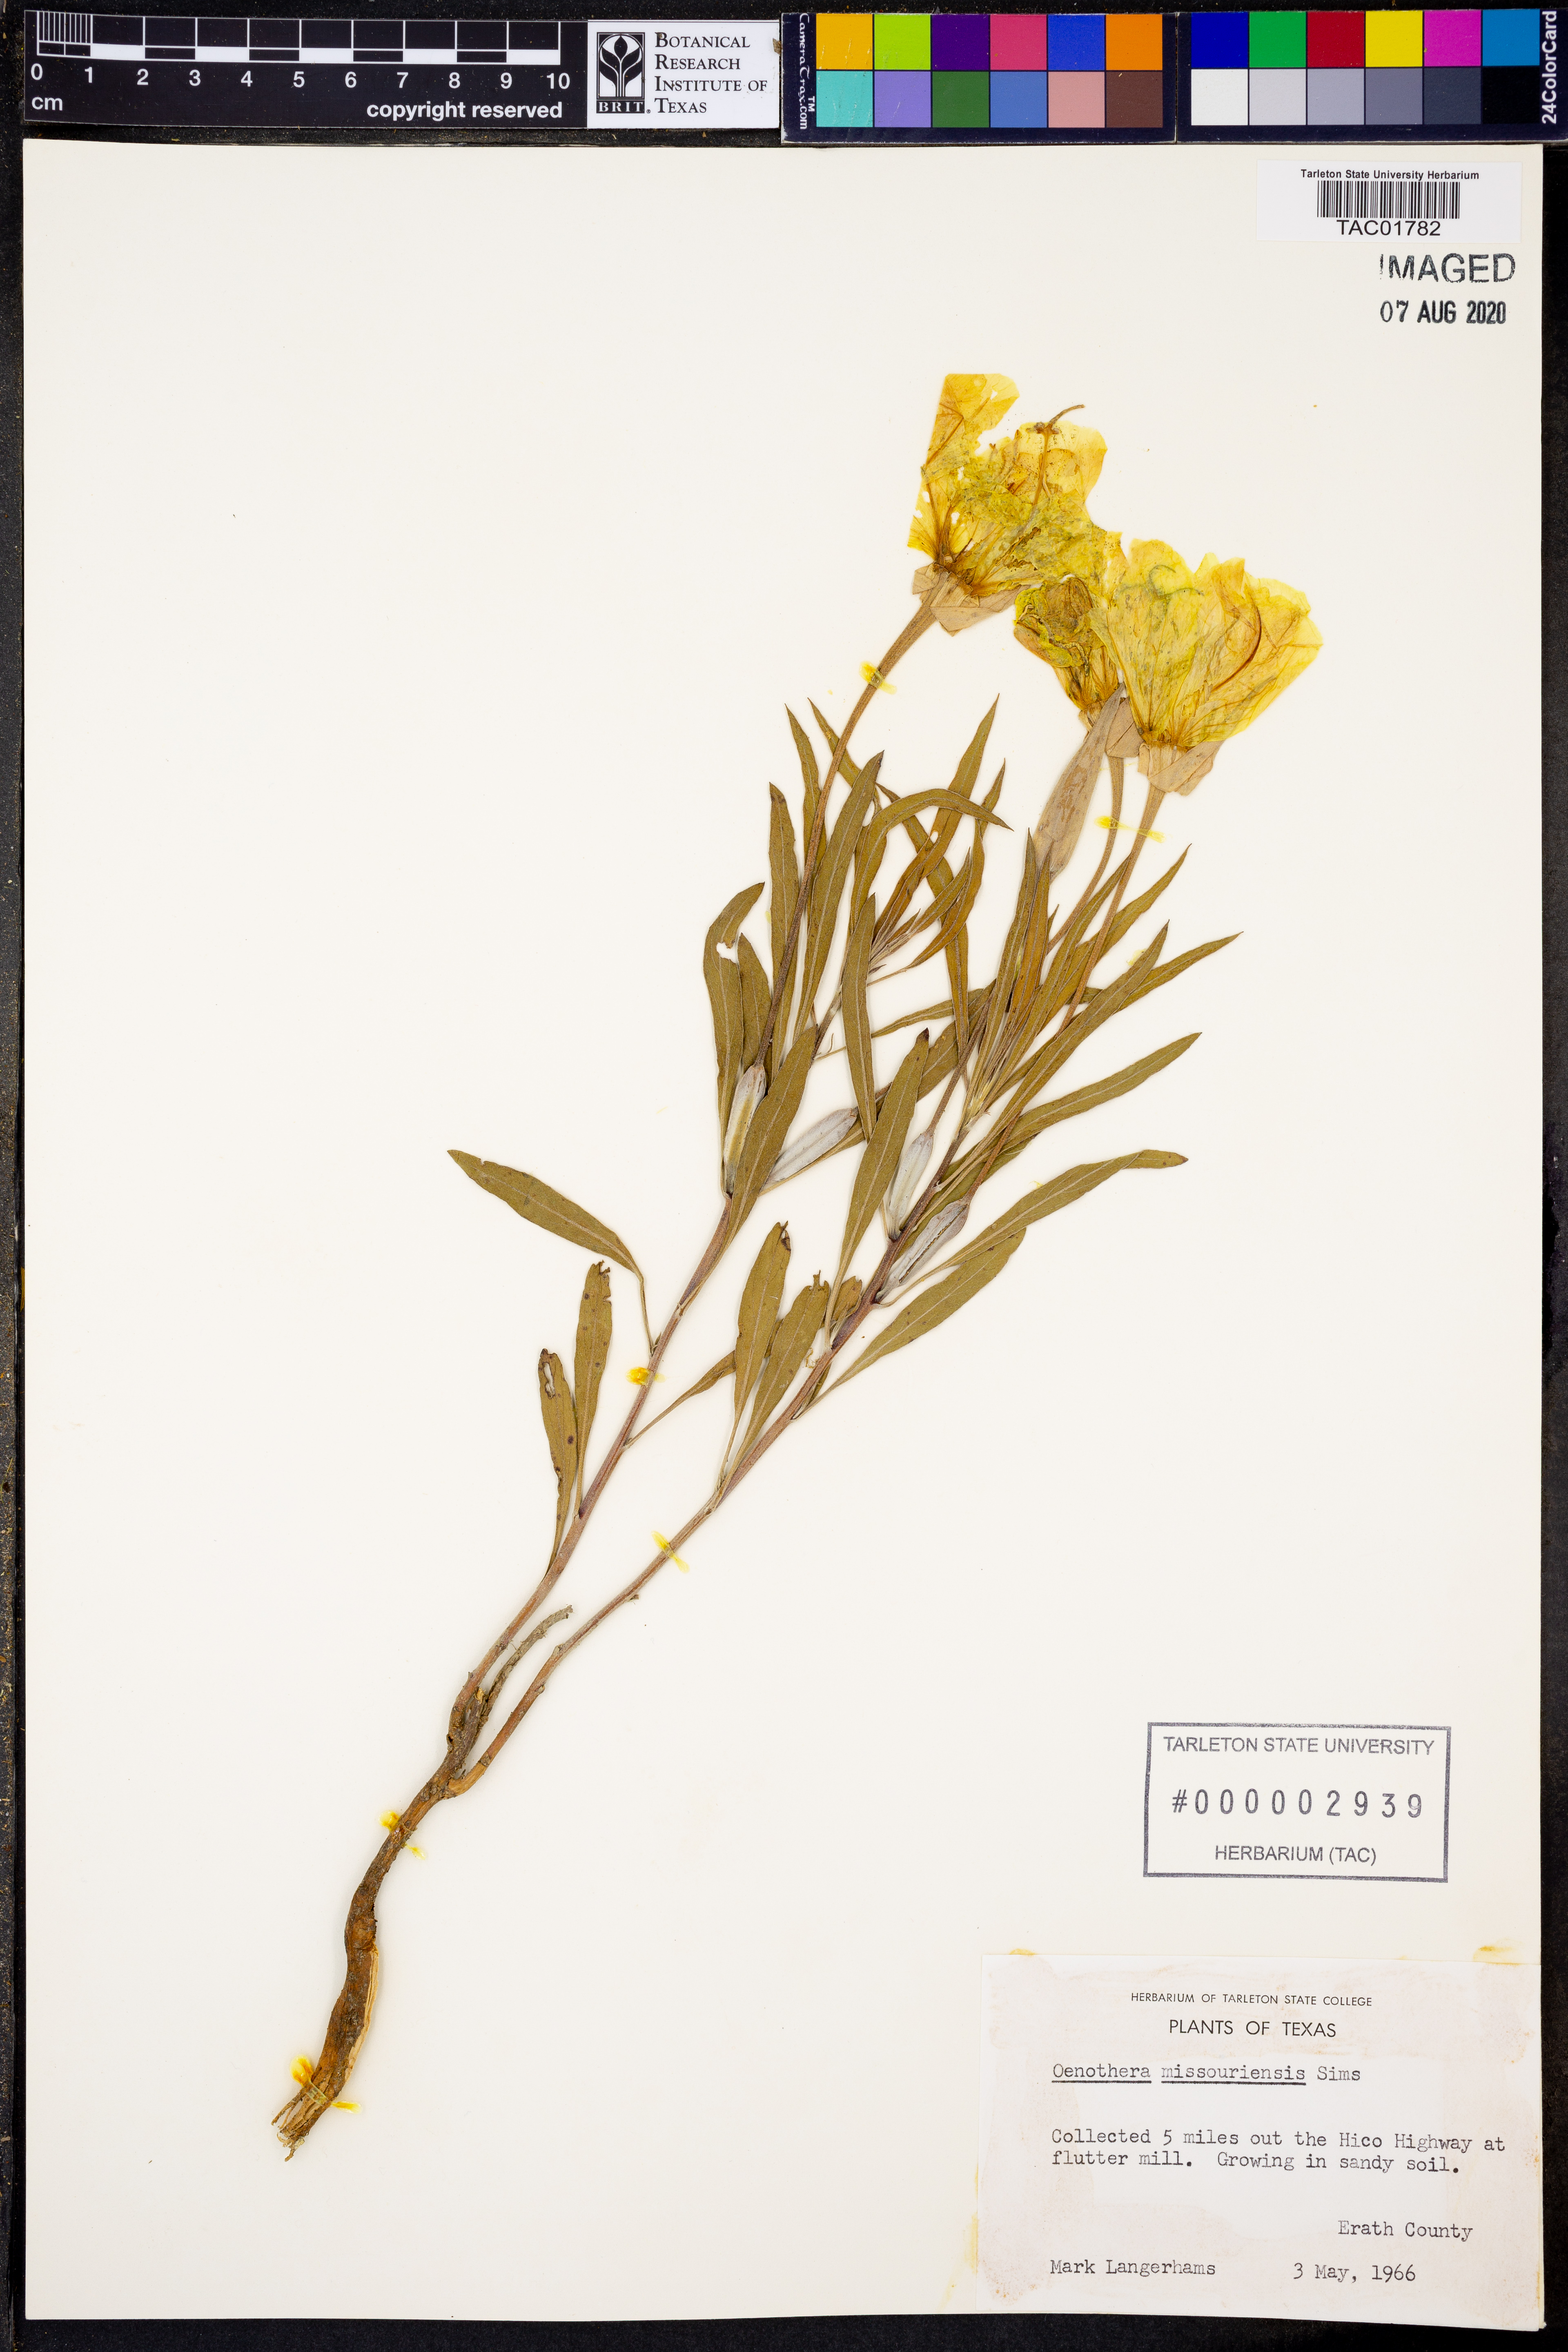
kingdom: Plantae
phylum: Tracheophyta
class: Magnoliopsida
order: Myrtales
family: Onagraceae
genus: Oenothera
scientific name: Oenothera macrocarpa
